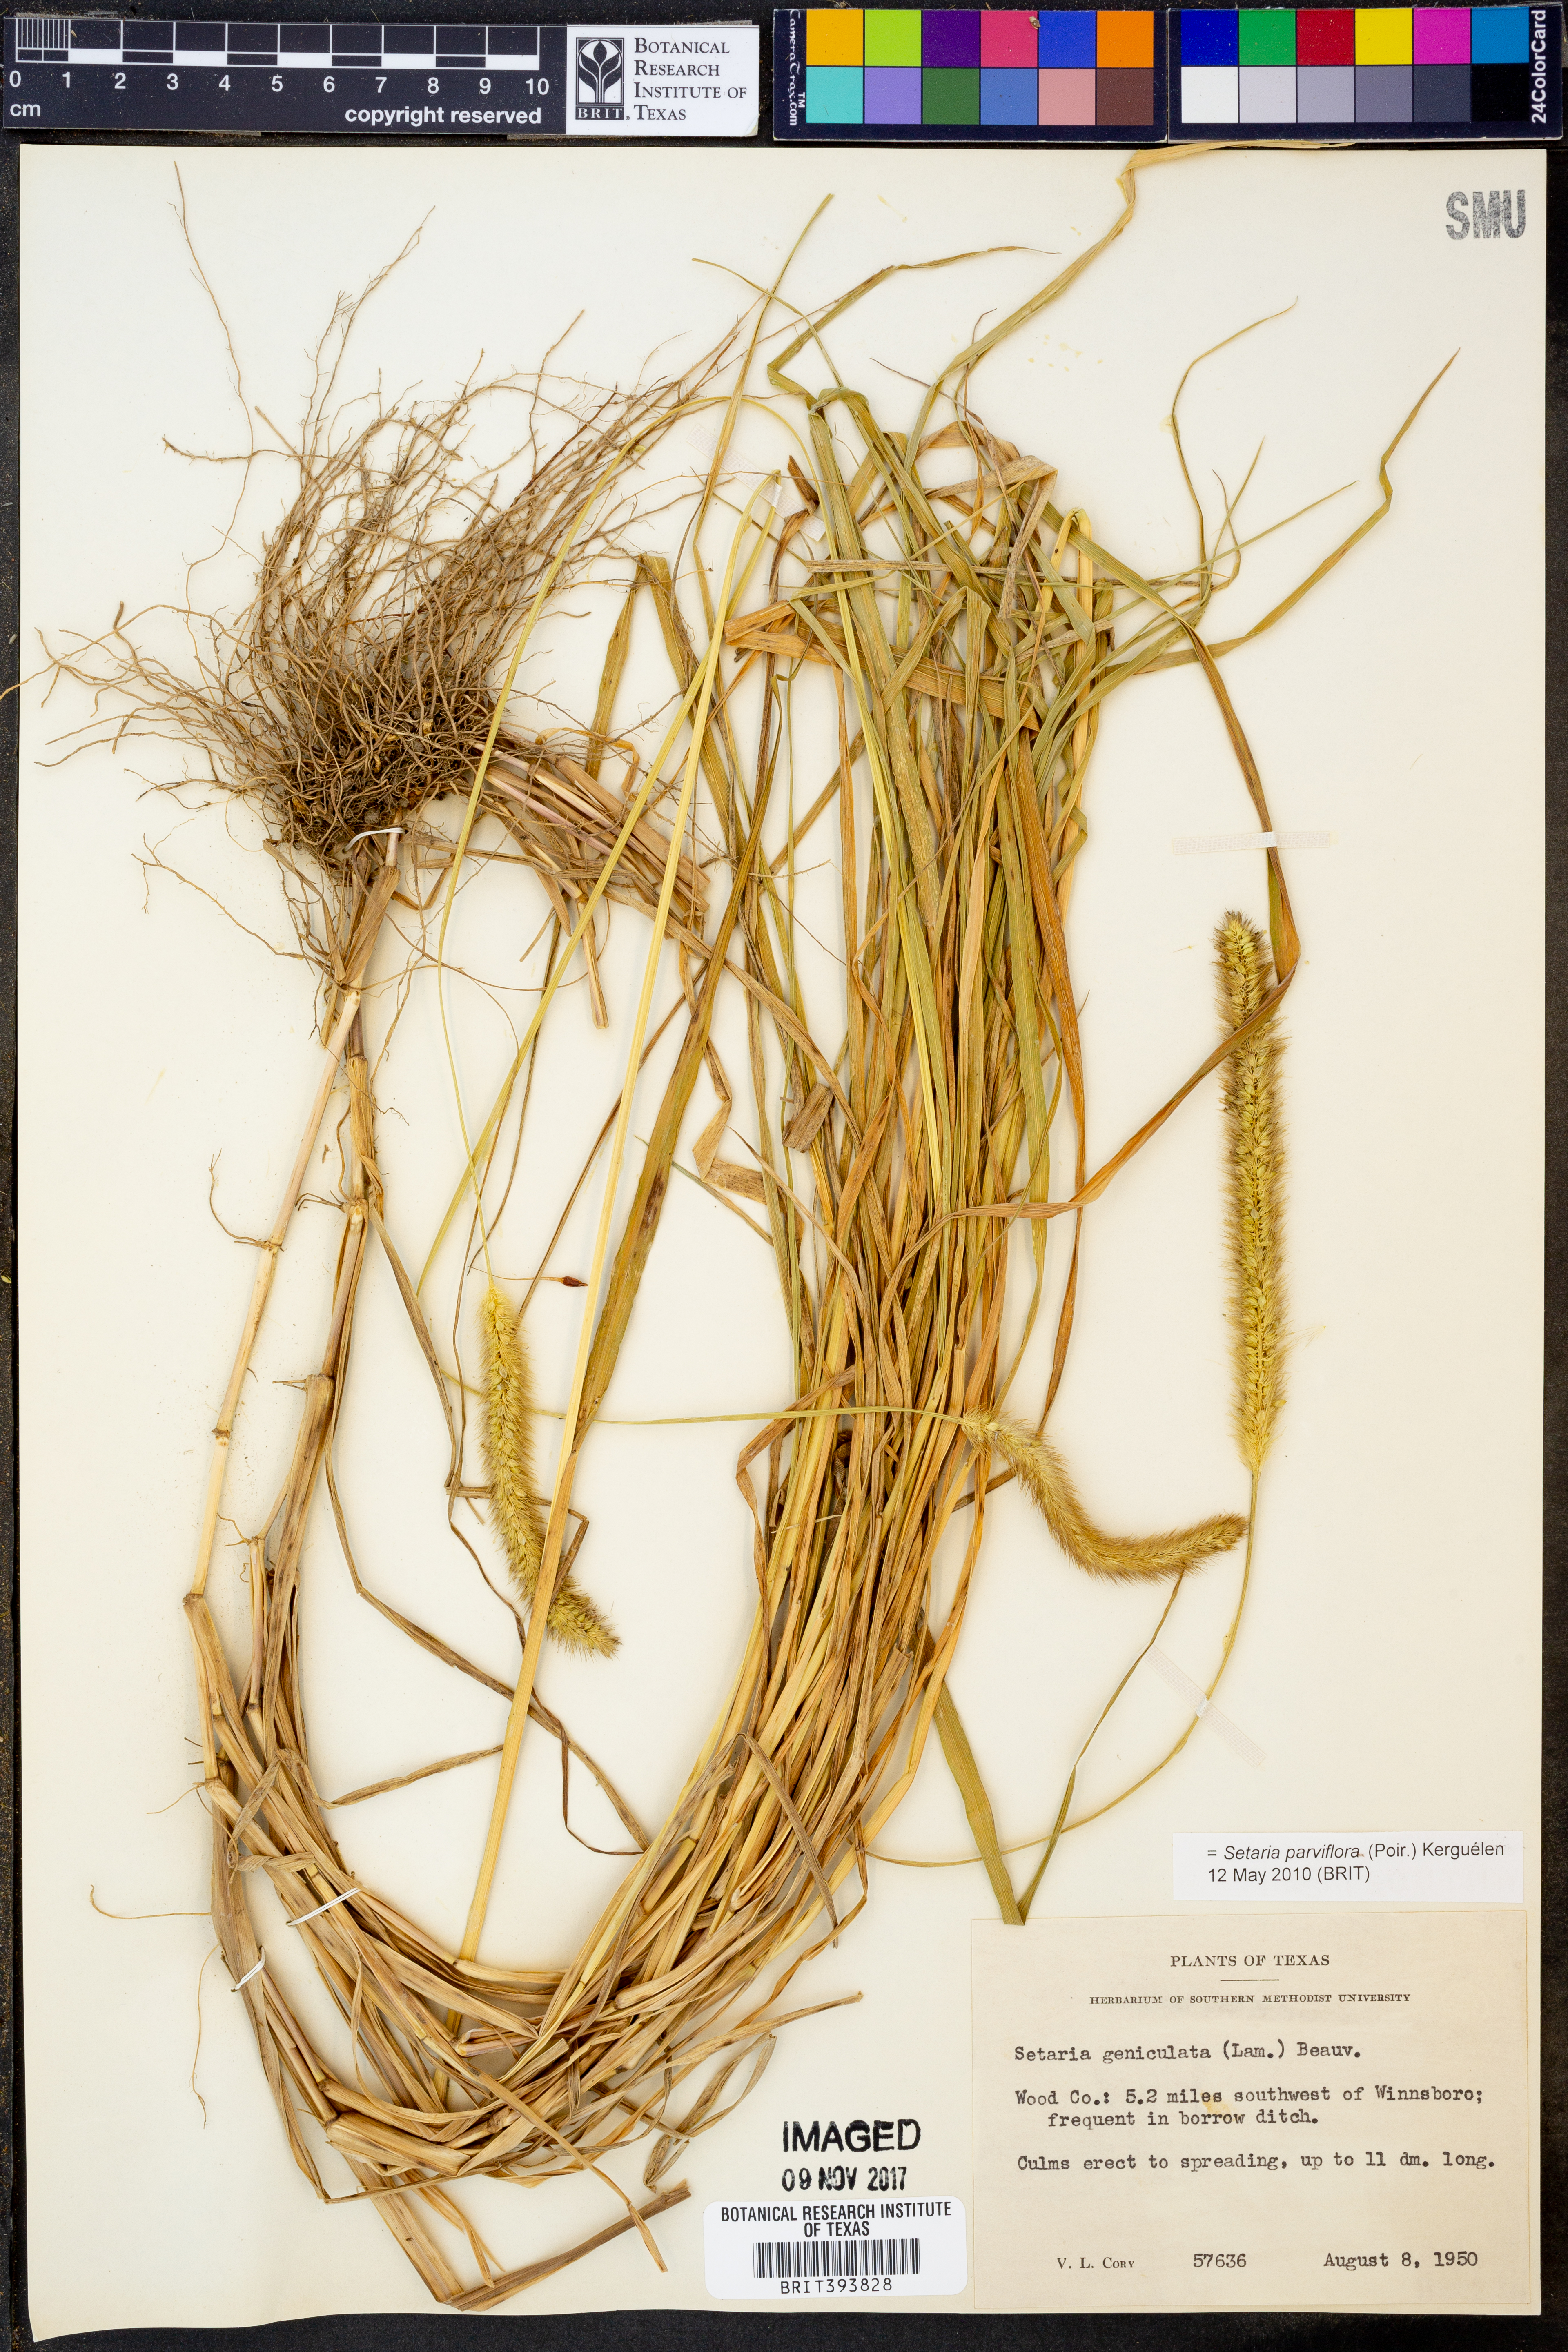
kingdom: Plantae
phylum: Tracheophyta
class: Liliopsida
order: Poales
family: Poaceae
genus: Setaria
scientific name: Setaria parviflora
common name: Knotroot bristle-grass
